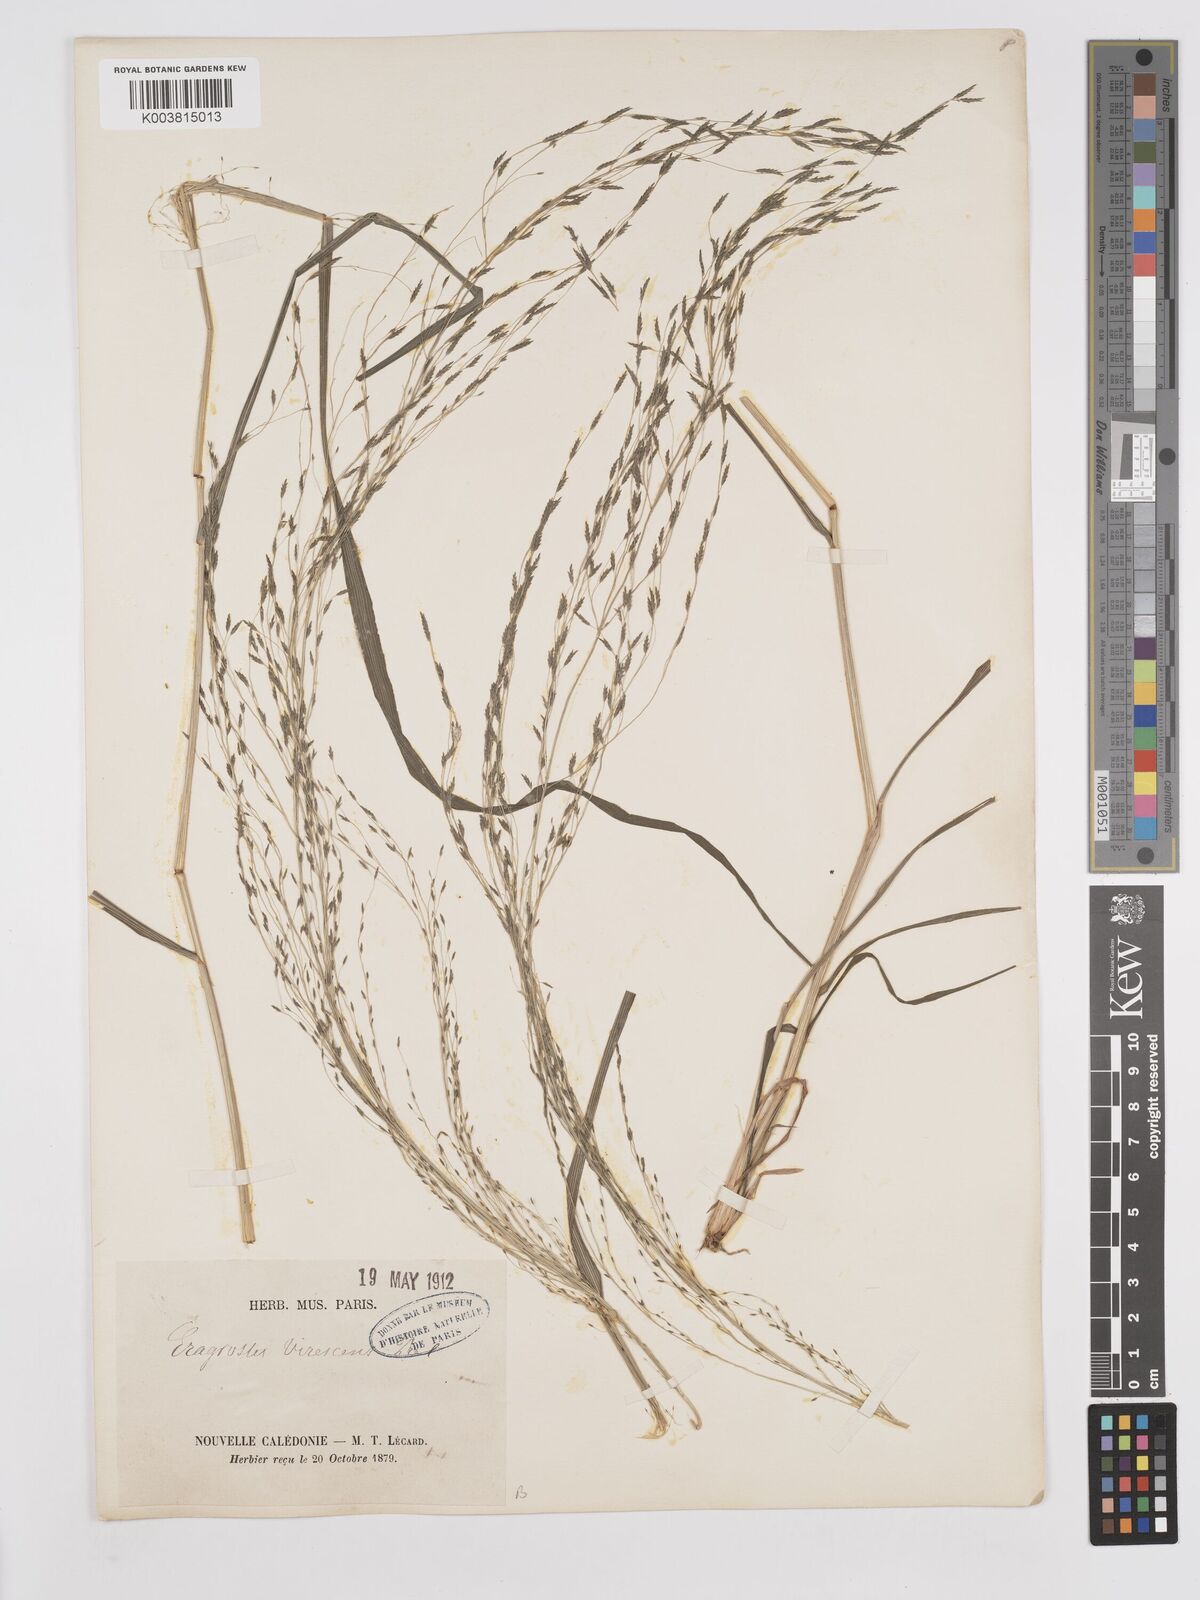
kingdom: Plantae
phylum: Tracheophyta
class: Liliopsida
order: Poales
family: Poaceae
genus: Eragrostis
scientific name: Eragrostis parviflora
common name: Weeping love-grass
